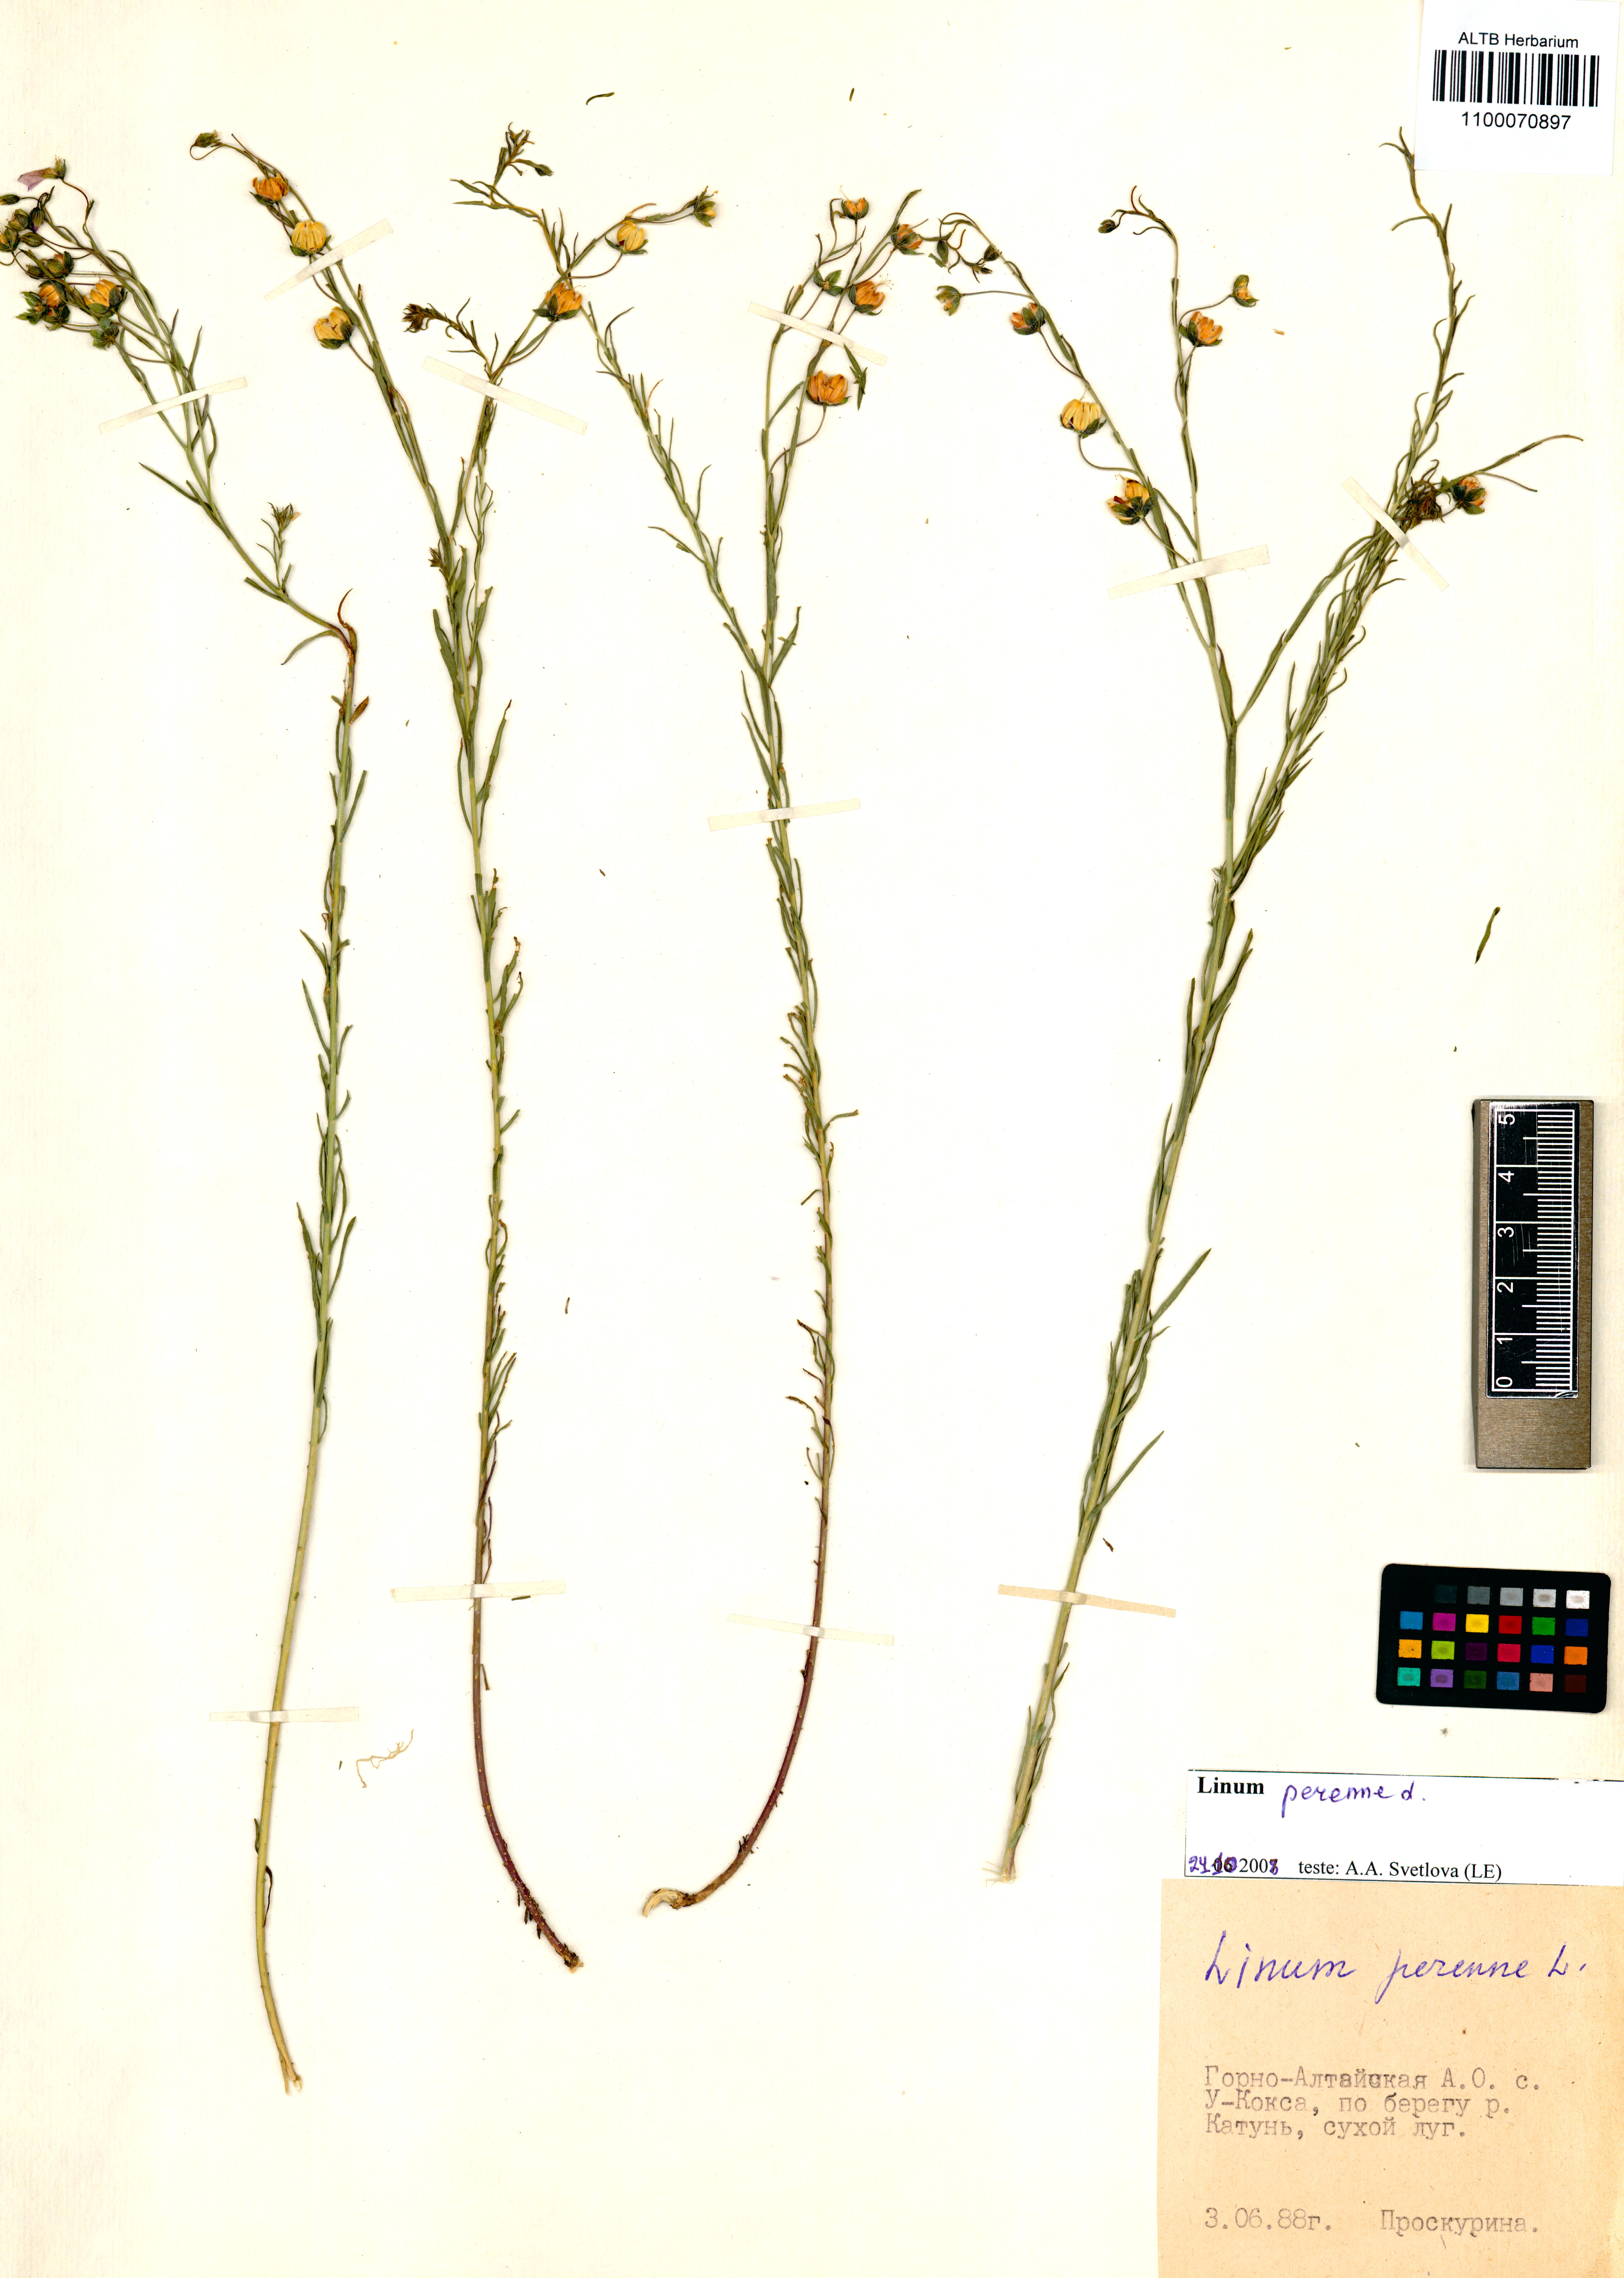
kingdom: Plantae
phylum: Tracheophyta
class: Magnoliopsida
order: Malpighiales
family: Linaceae
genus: Linum
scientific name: Linum perenne
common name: Blue flax
